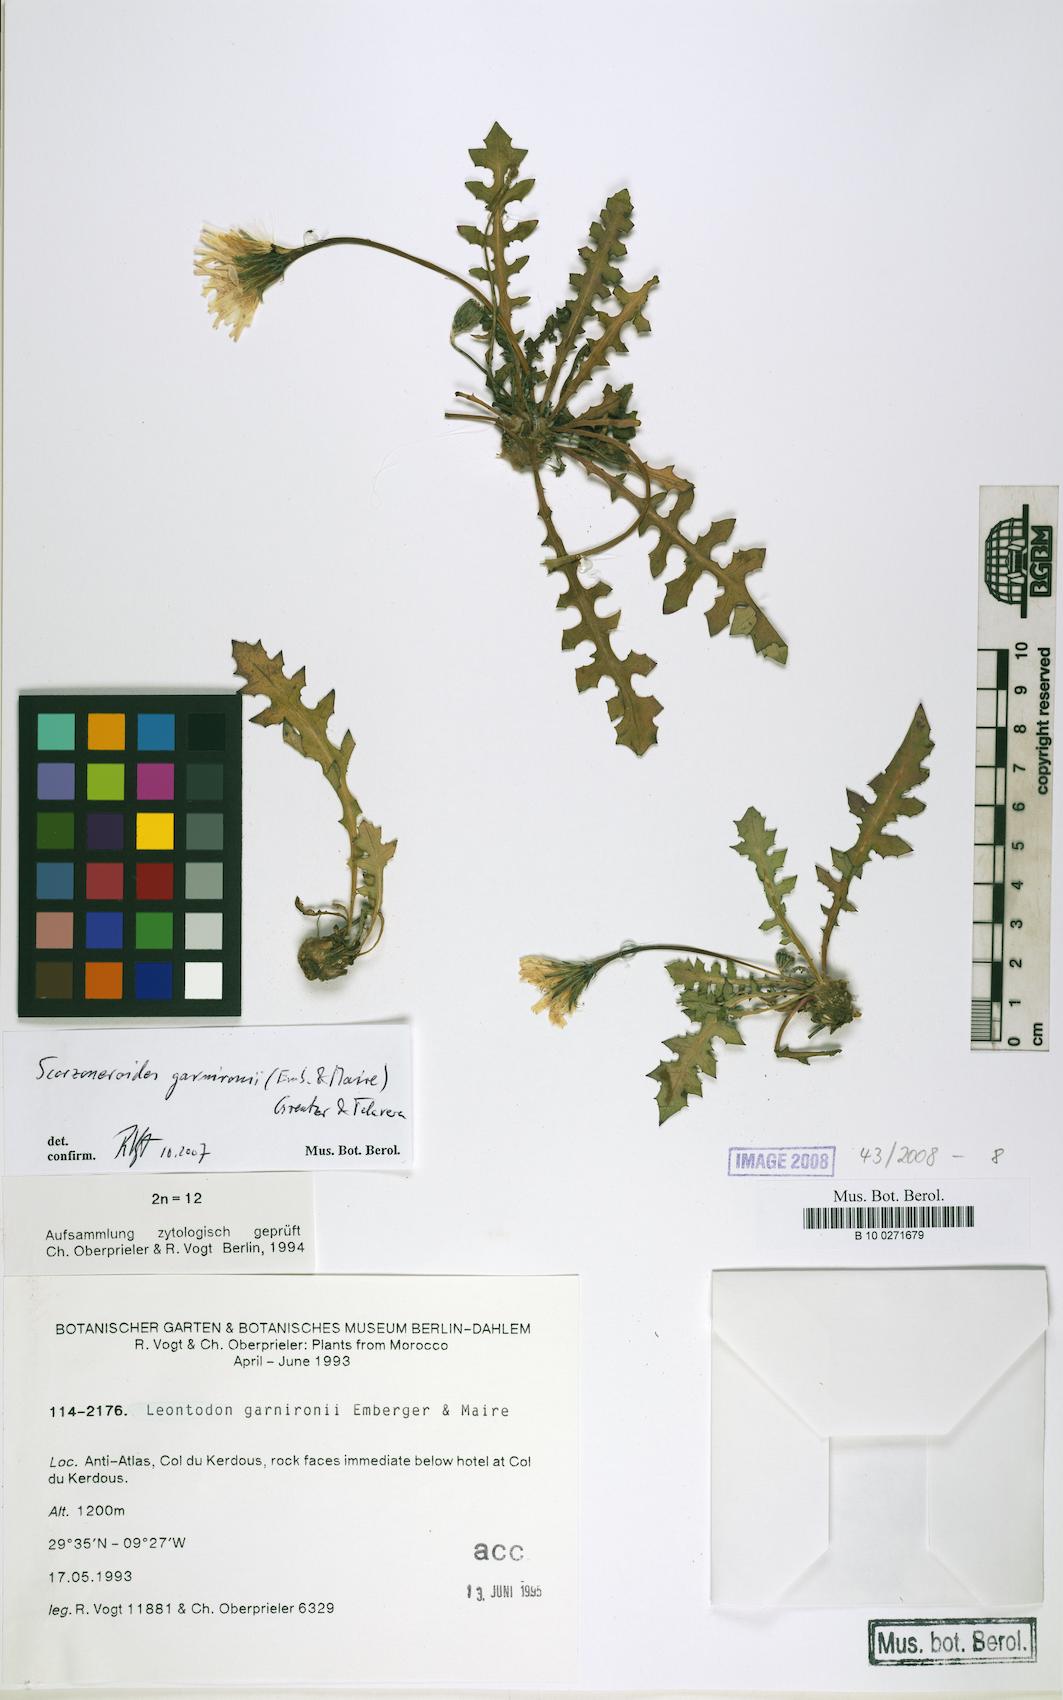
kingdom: Plantae
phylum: Tracheophyta
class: Magnoliopsida
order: Asterales
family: Asteraceae
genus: Scorzoneroides
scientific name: Scorzoneroides garnironii
